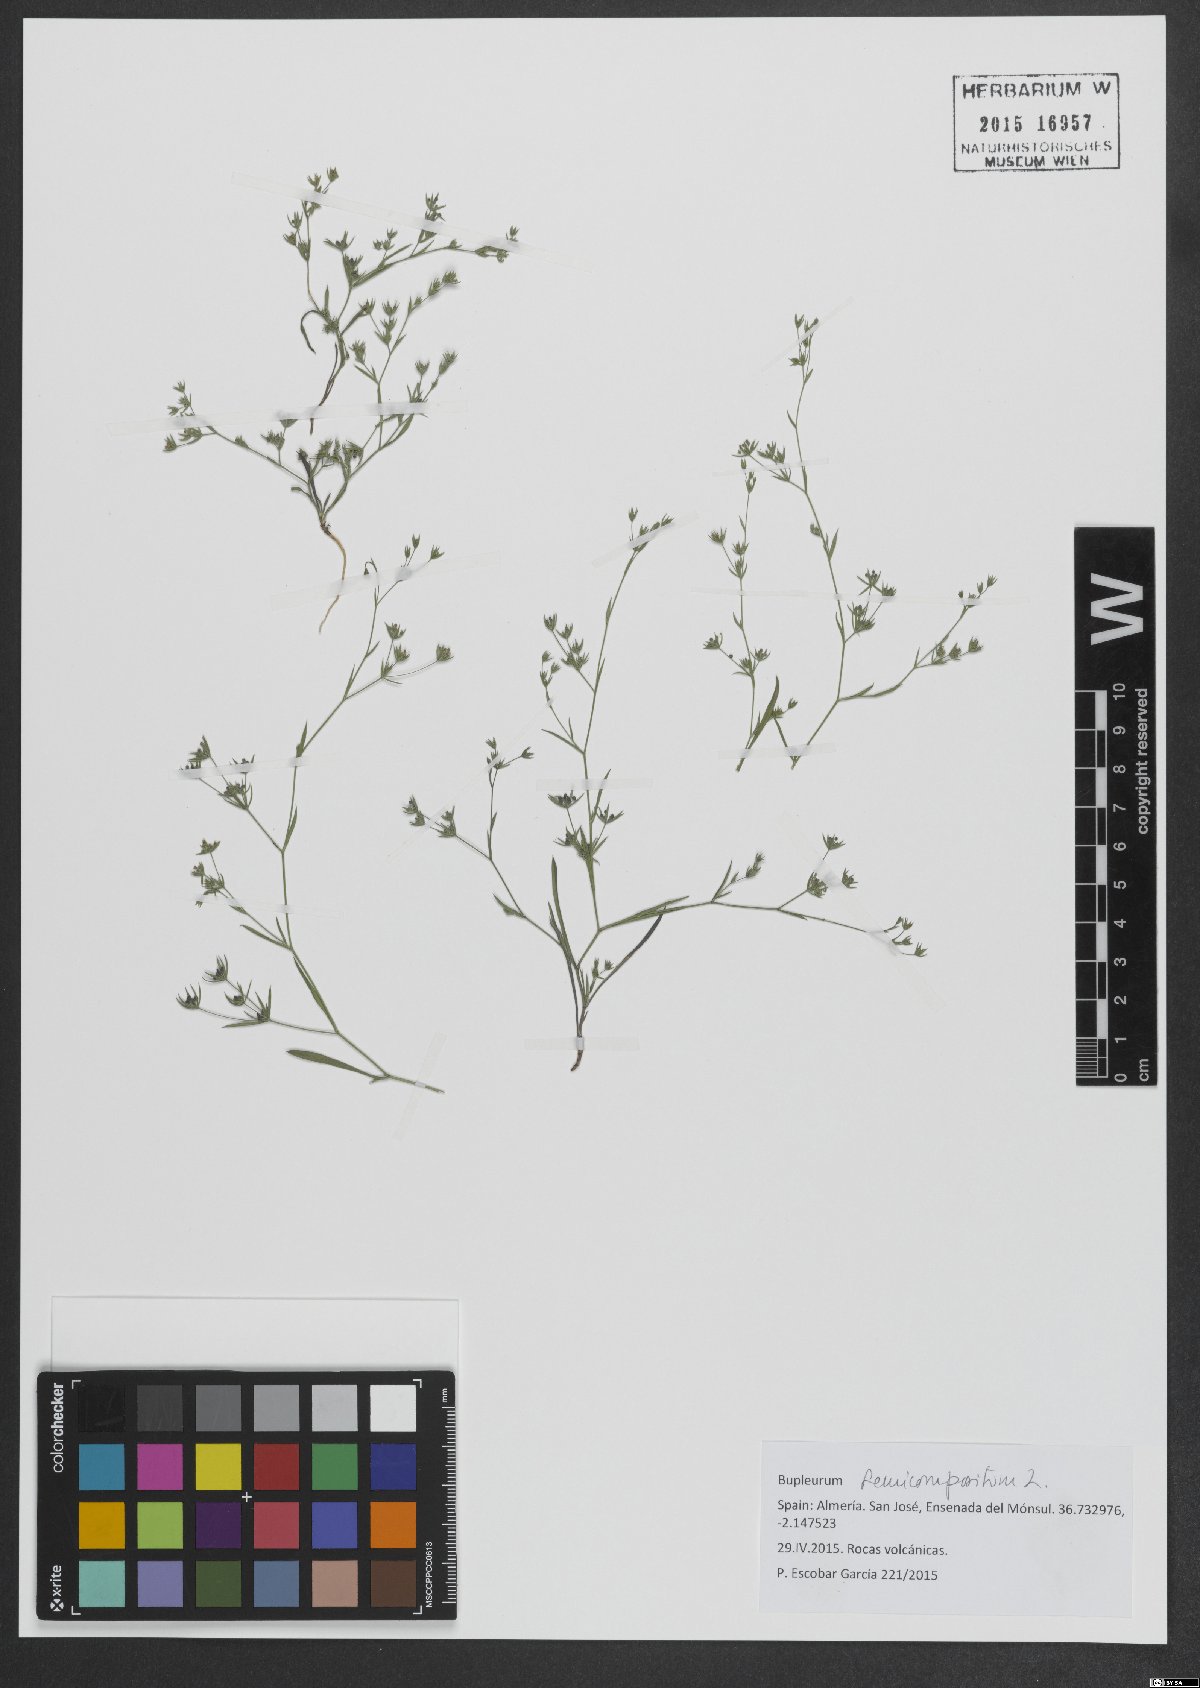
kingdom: Plantae
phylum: Tracheophyta
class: Magnoliopsida
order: Apiales
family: Apiaceae
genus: Bupleurum
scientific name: Bupleurum semicompositum
